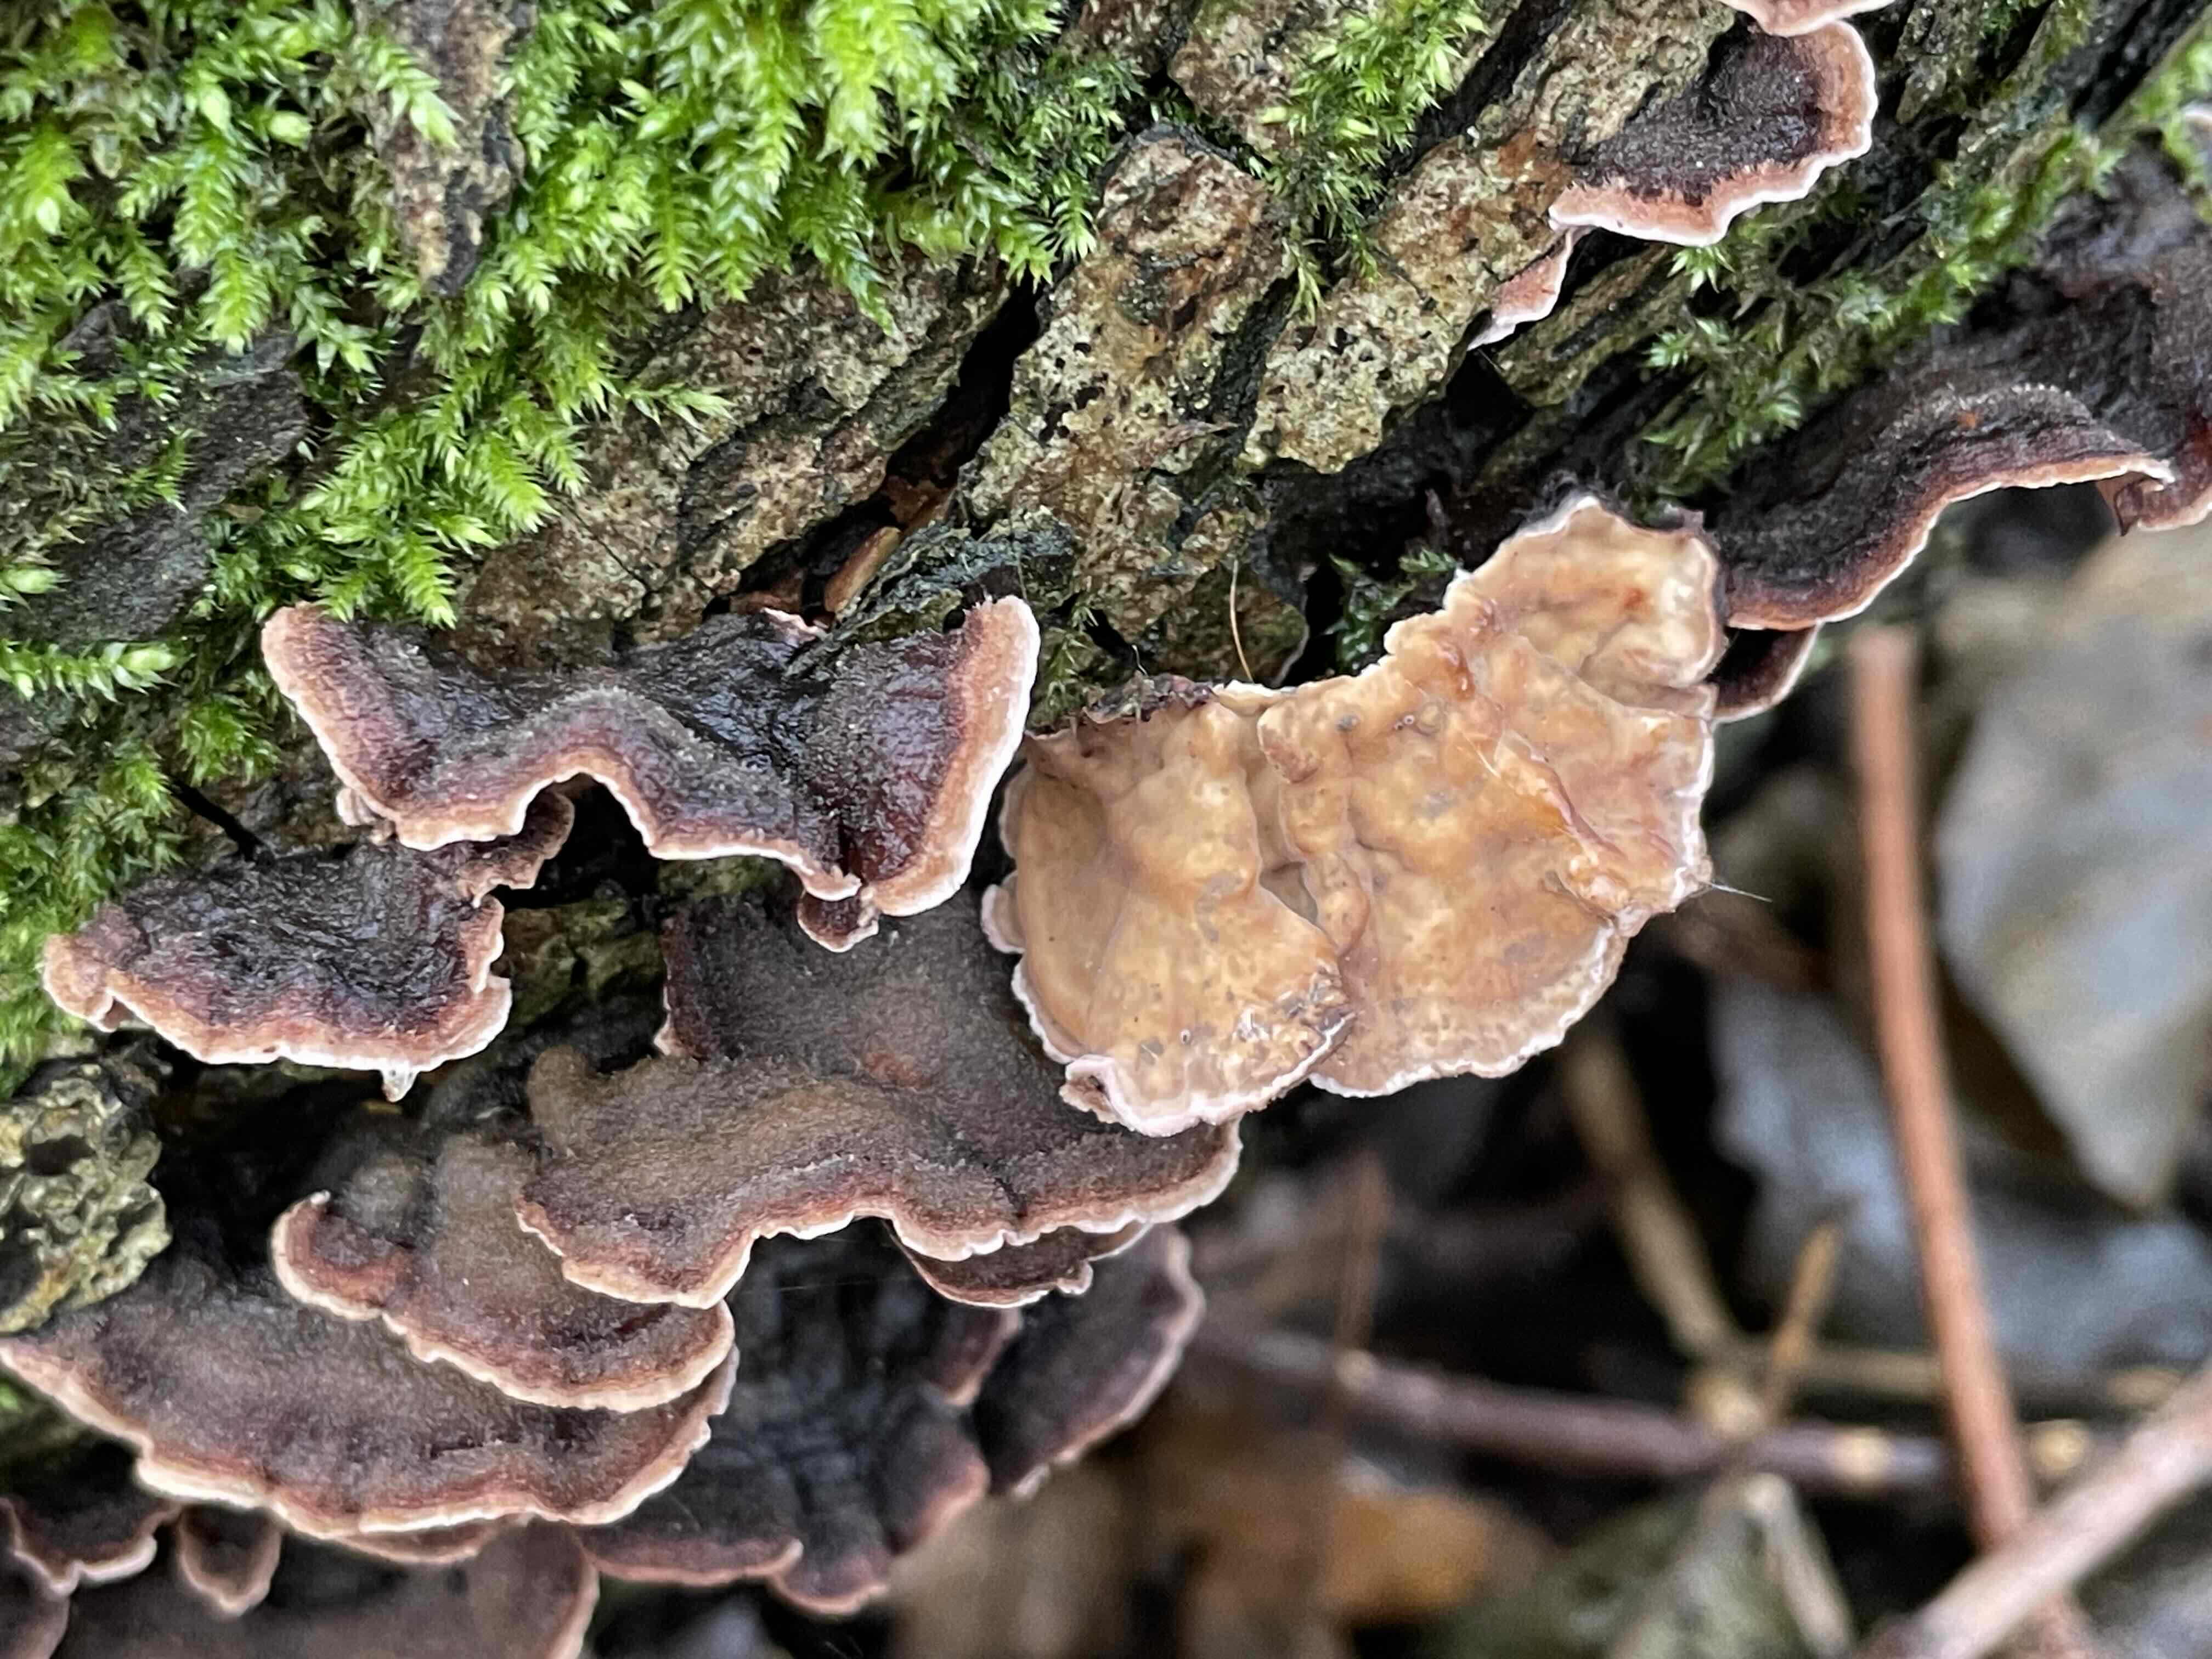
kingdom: Fungi
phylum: Basidiomycota
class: Agaricomycetes
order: Agaricales
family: Cyphellaceae
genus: Chondrostereum
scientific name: Chondrostereum purpureum
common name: purpurlædersvamp
